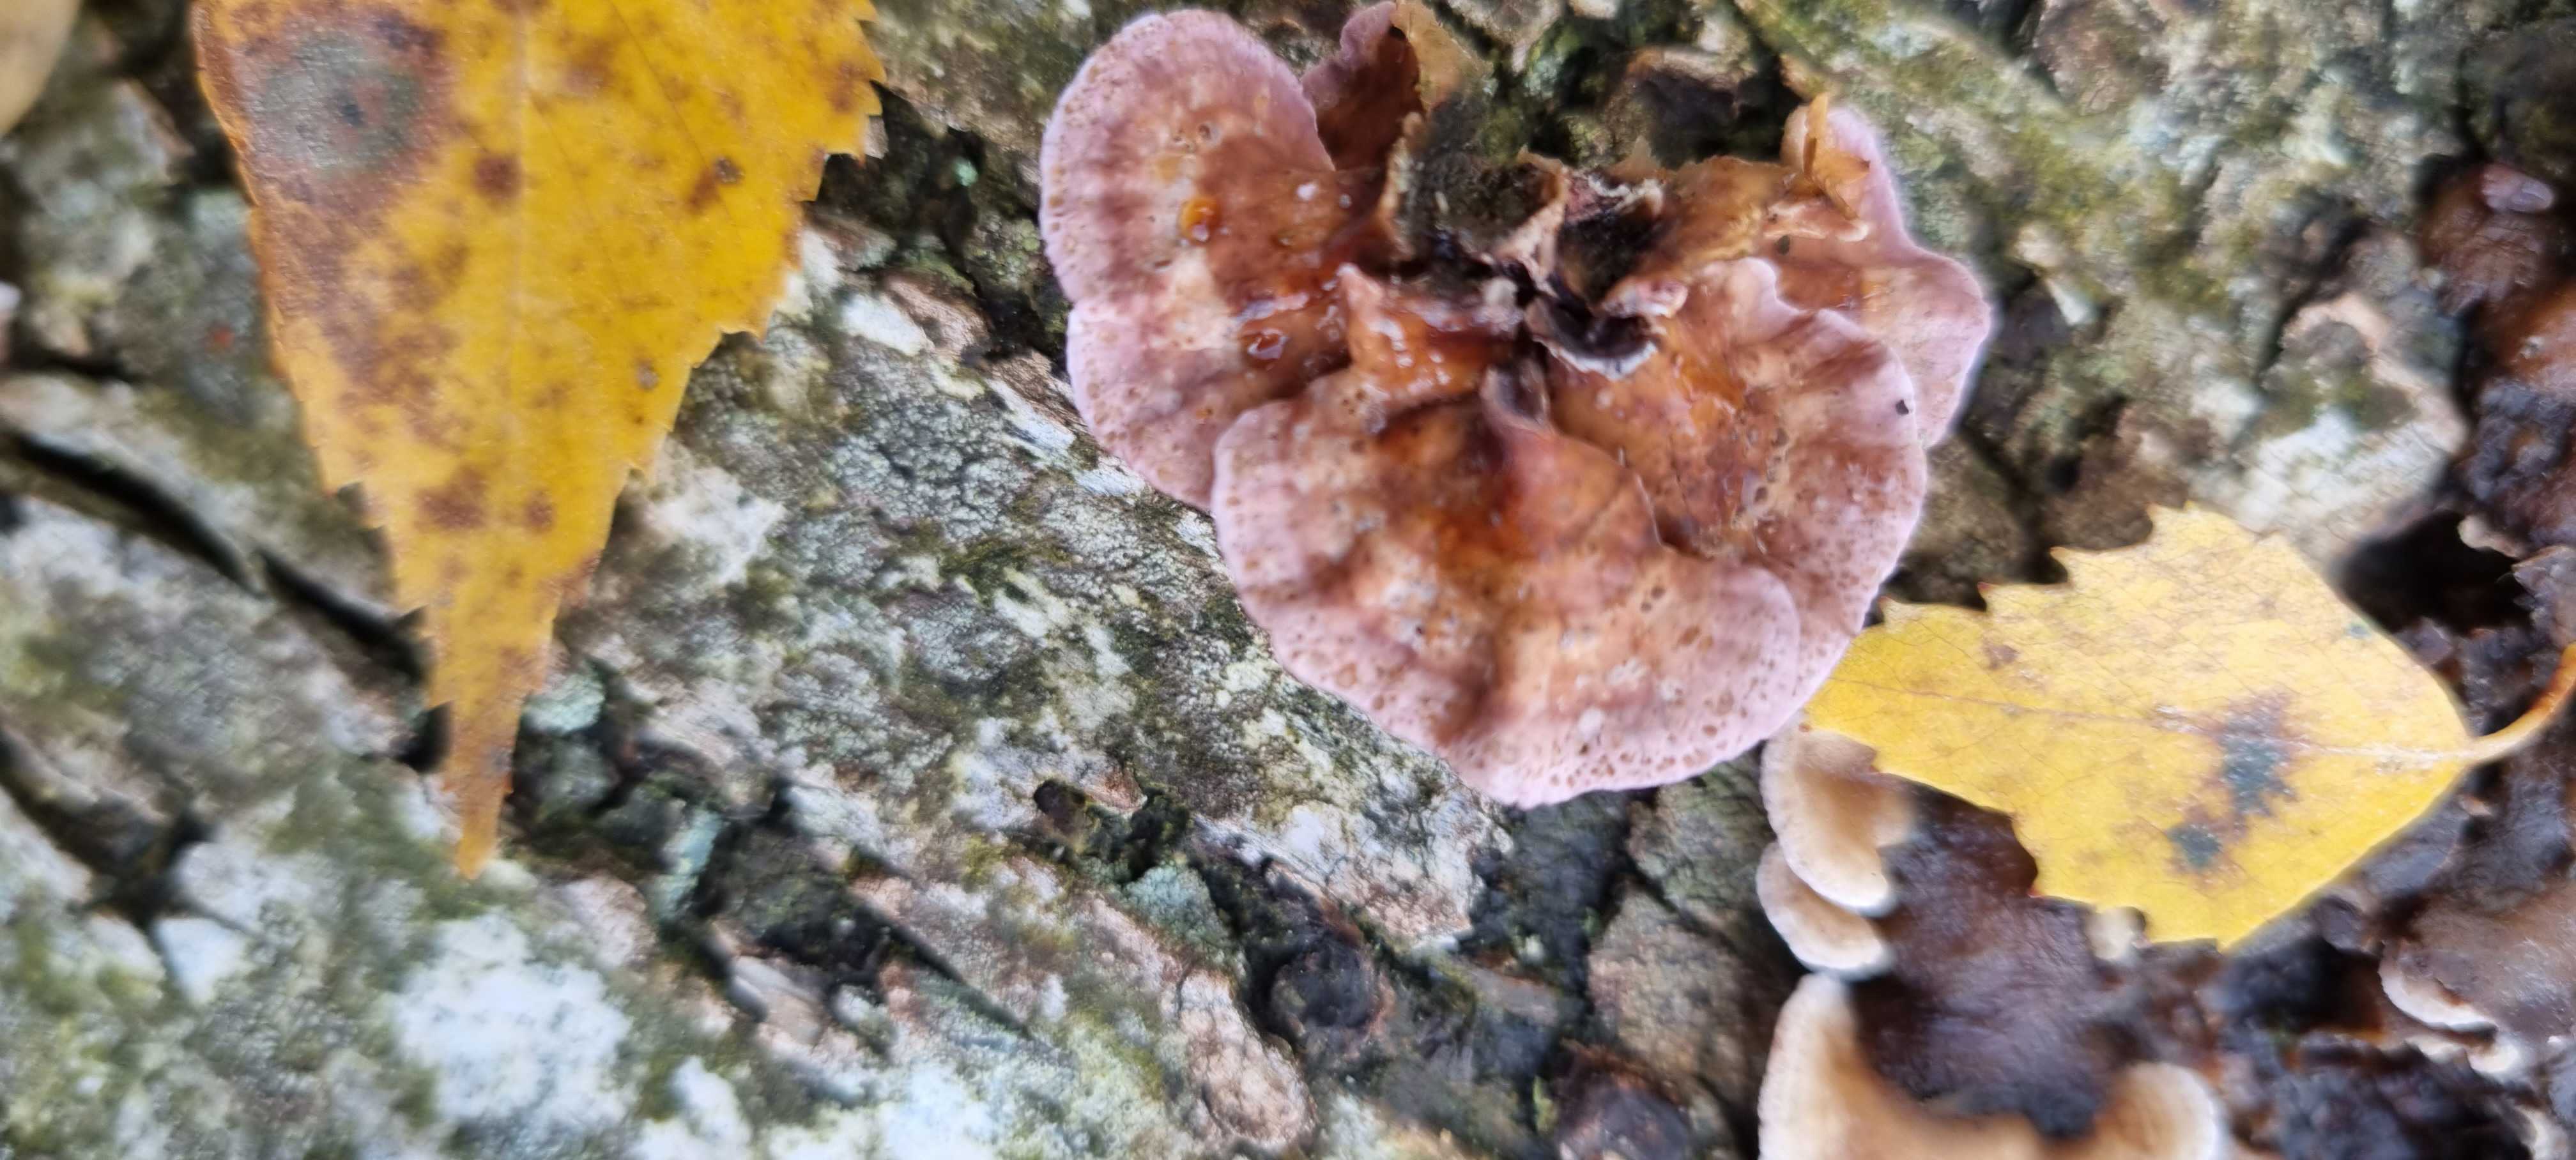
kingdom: Fungi
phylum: Basidiomycota
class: Agaricomycetes
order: Agaricales
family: Cyphellaceae
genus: Chondrostereum
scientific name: Chondrostereum purpureum
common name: purpurlædersvamp
